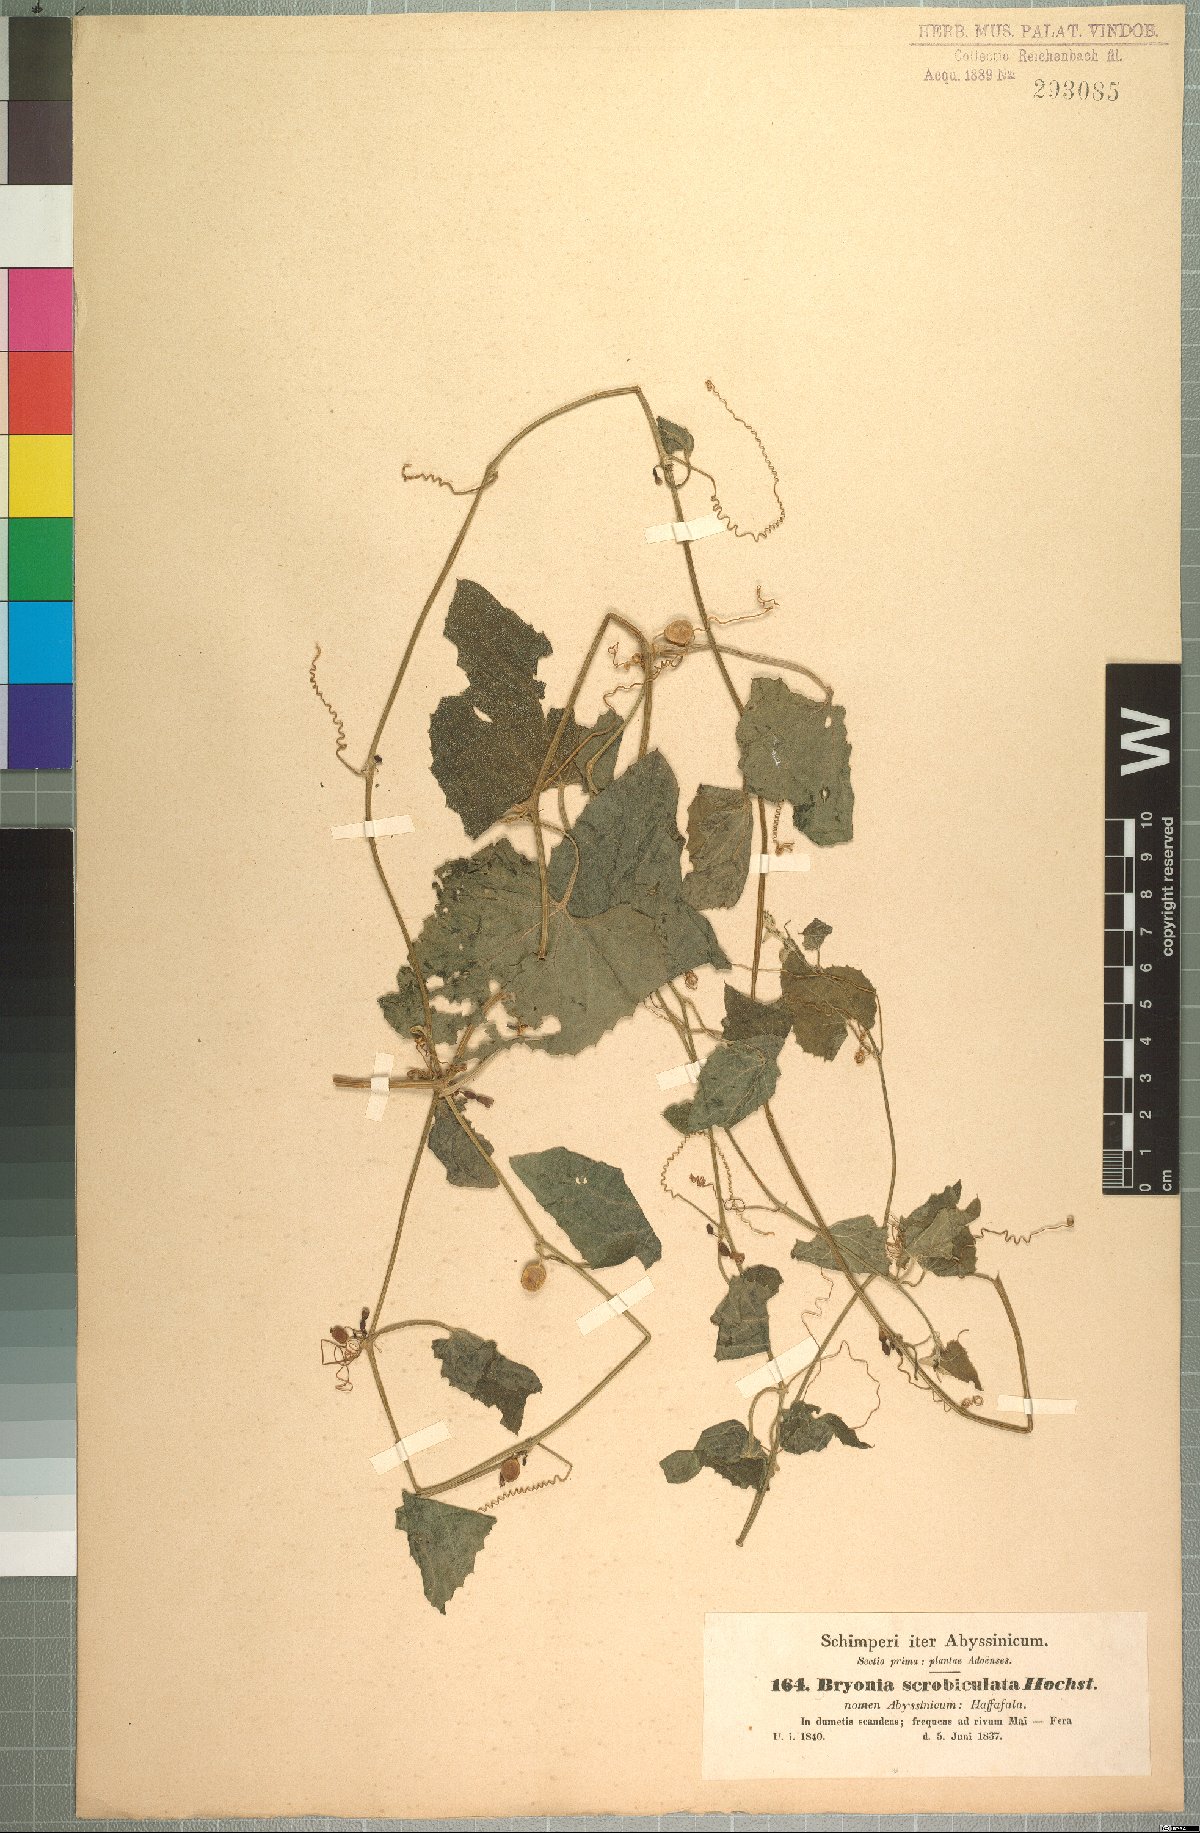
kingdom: Plantae
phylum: Tracheophyta
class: Magnoliopsida
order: Cucurbitales
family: Cucurbitaceae
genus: Zehneria
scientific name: Zehneria scabra
